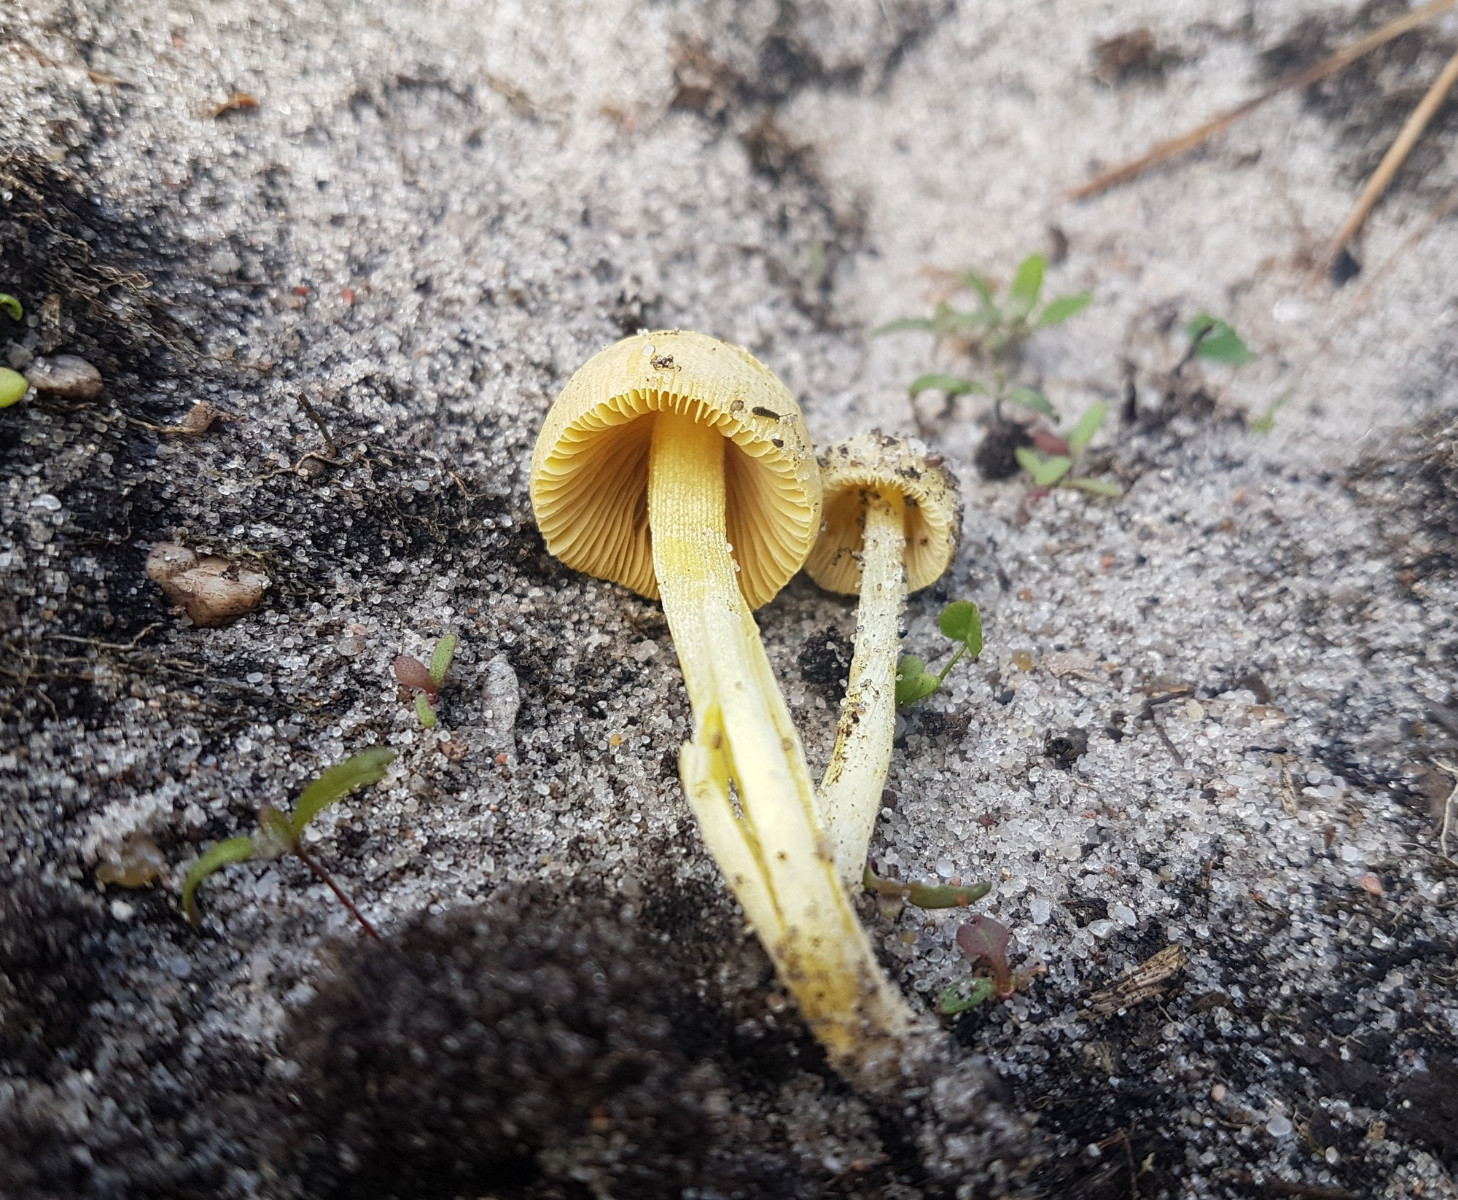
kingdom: Fungi
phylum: Basidiomycota
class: Agaricomycetes
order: Agaricales
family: Bolbitiaceae
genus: Bolbitius
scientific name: Bolbitius titubans
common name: almindelig gulhat
